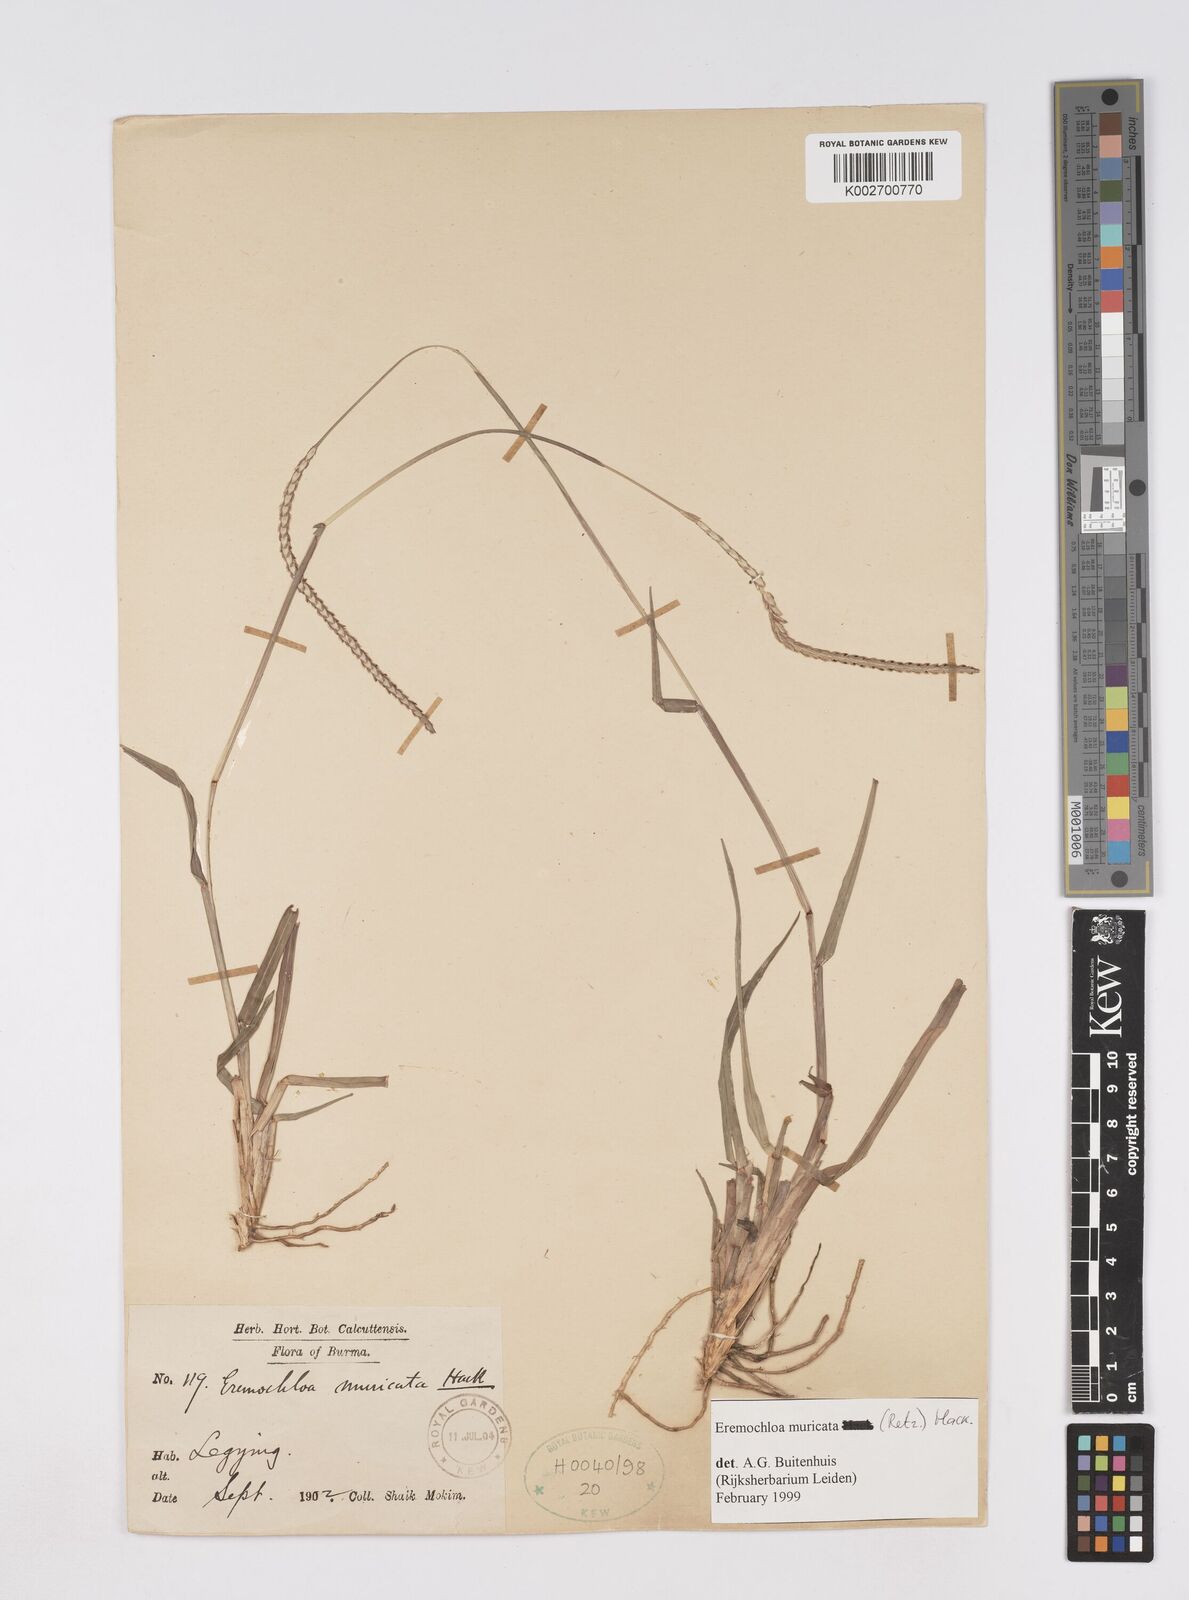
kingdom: Plantae
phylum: Tracheophyta
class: Liliopsida
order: Poales
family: Poaceae
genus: Eremochloa
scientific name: Eremochloa muricata
